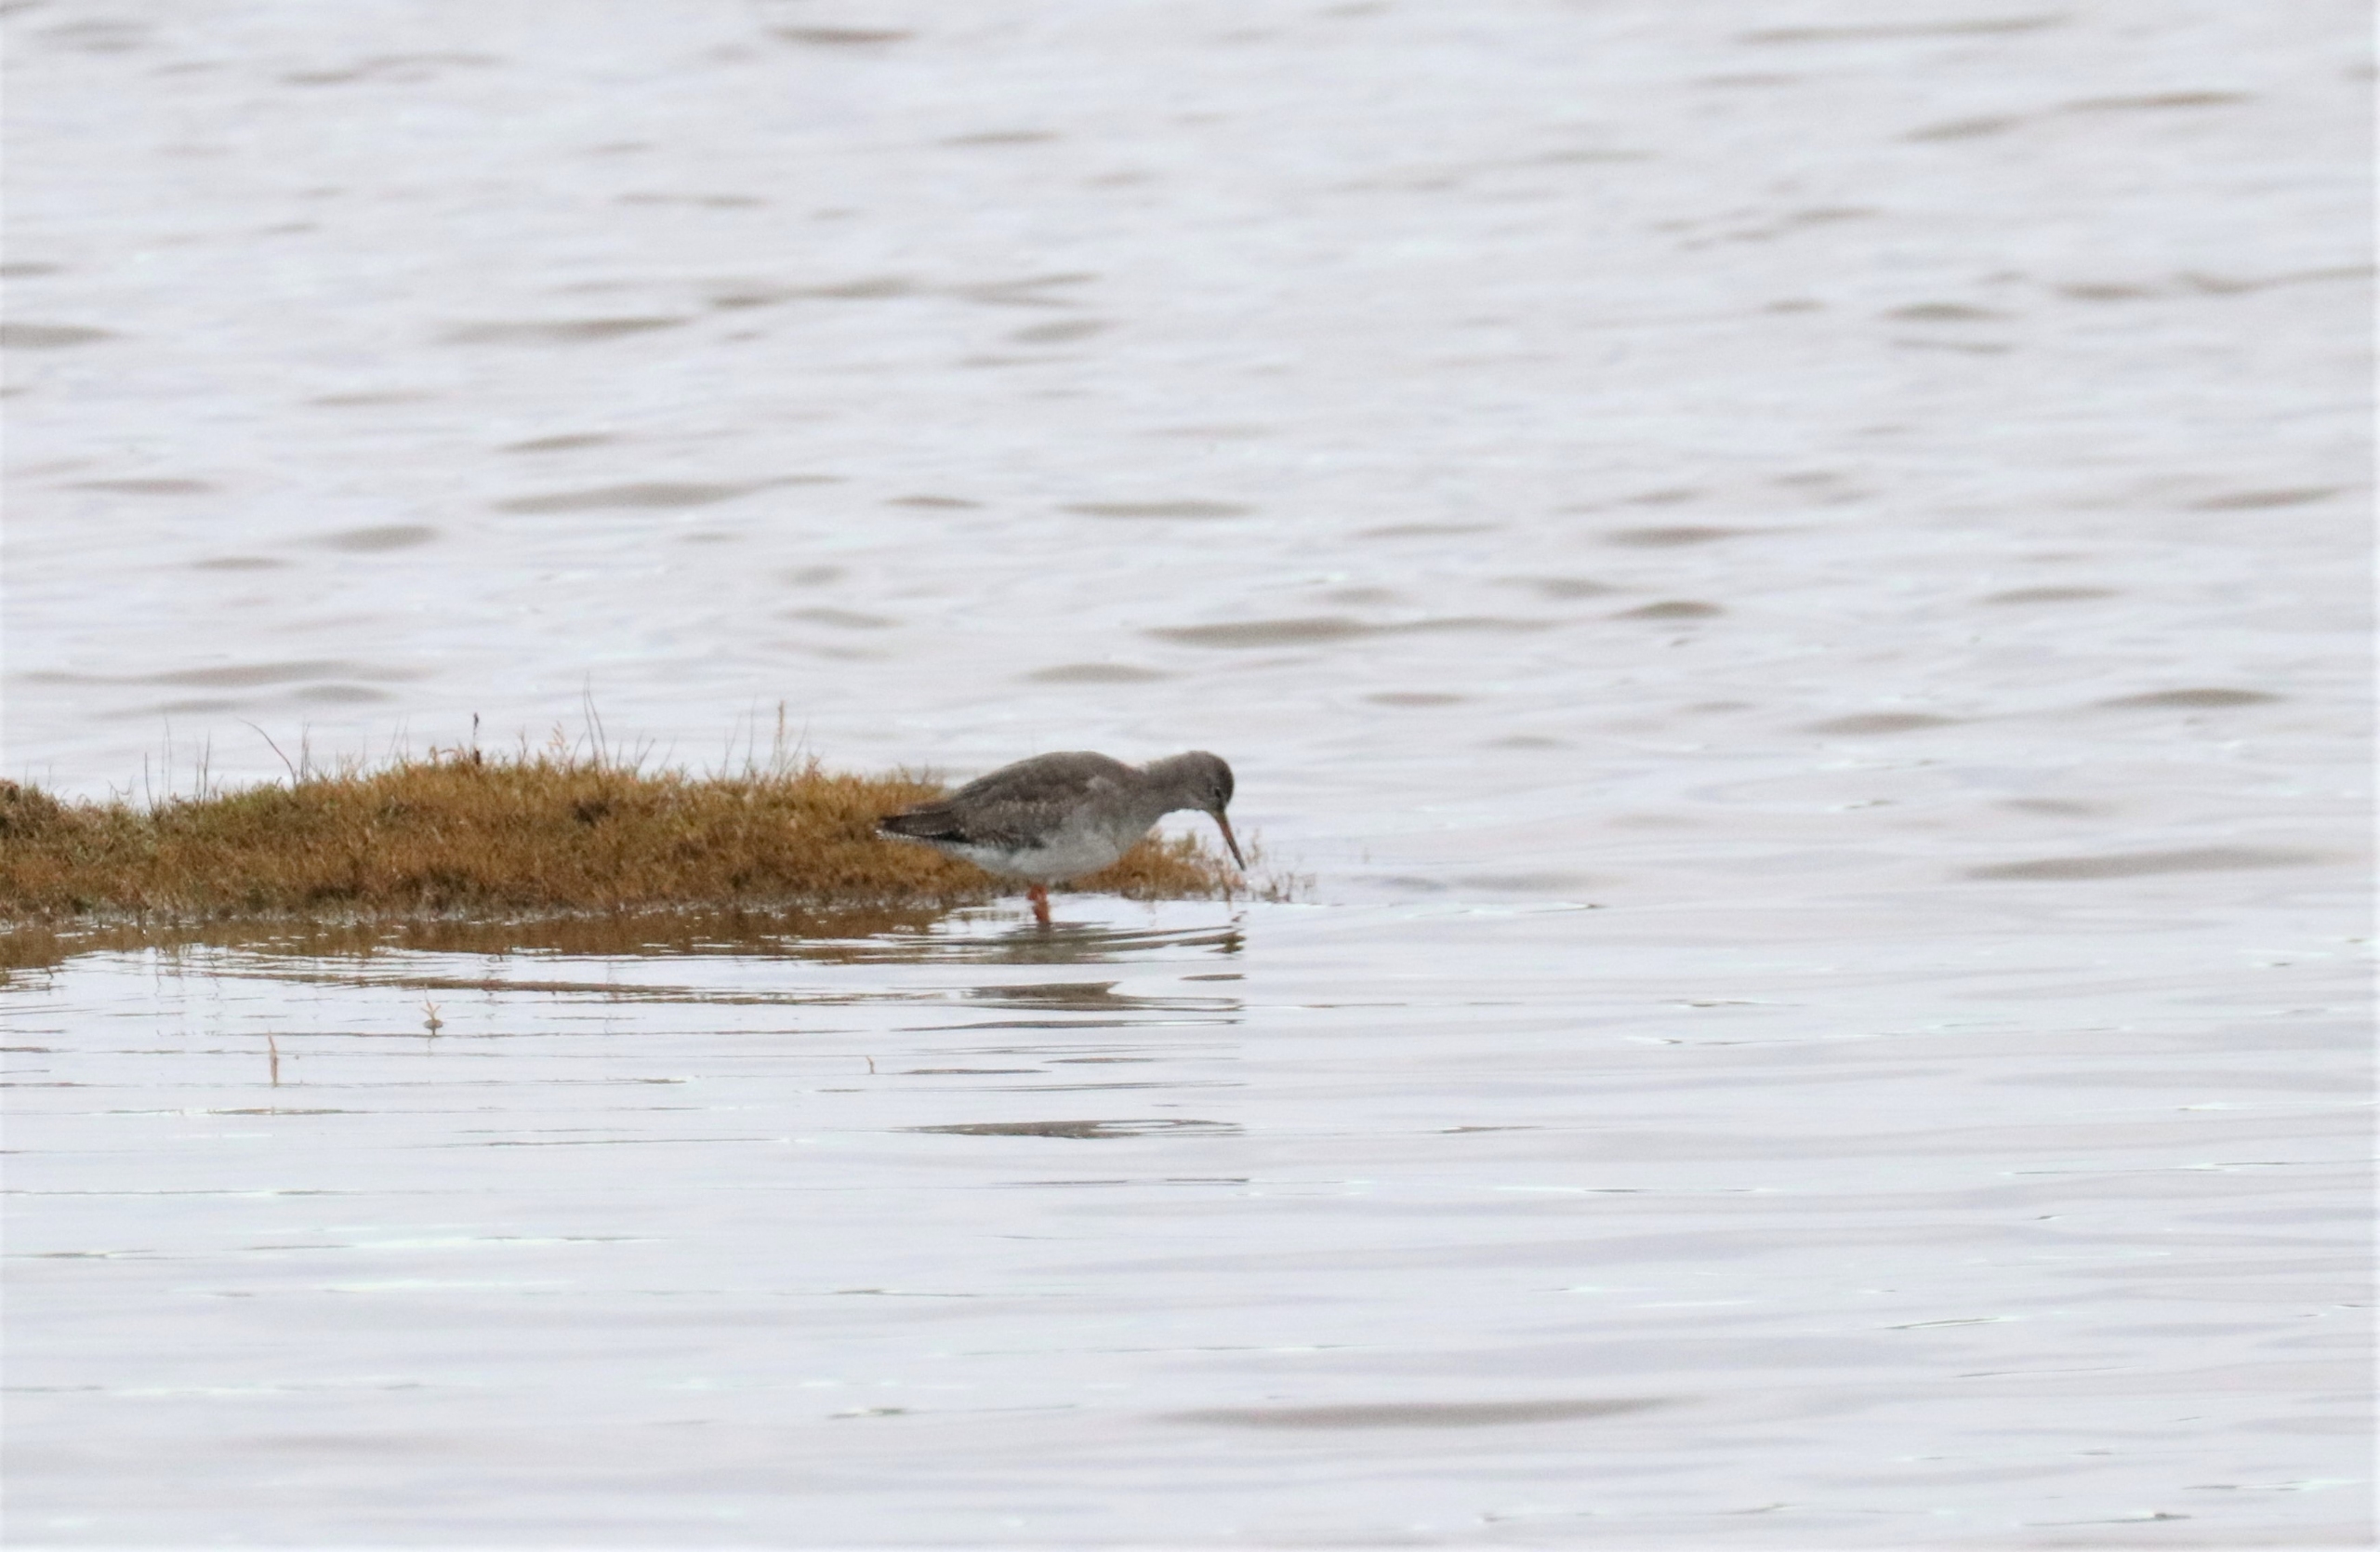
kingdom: Animalia
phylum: Chordata
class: Aves
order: Charadriiformes
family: Scolopacidae
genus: Tringa
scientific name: Tringa totanus
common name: Rødben
